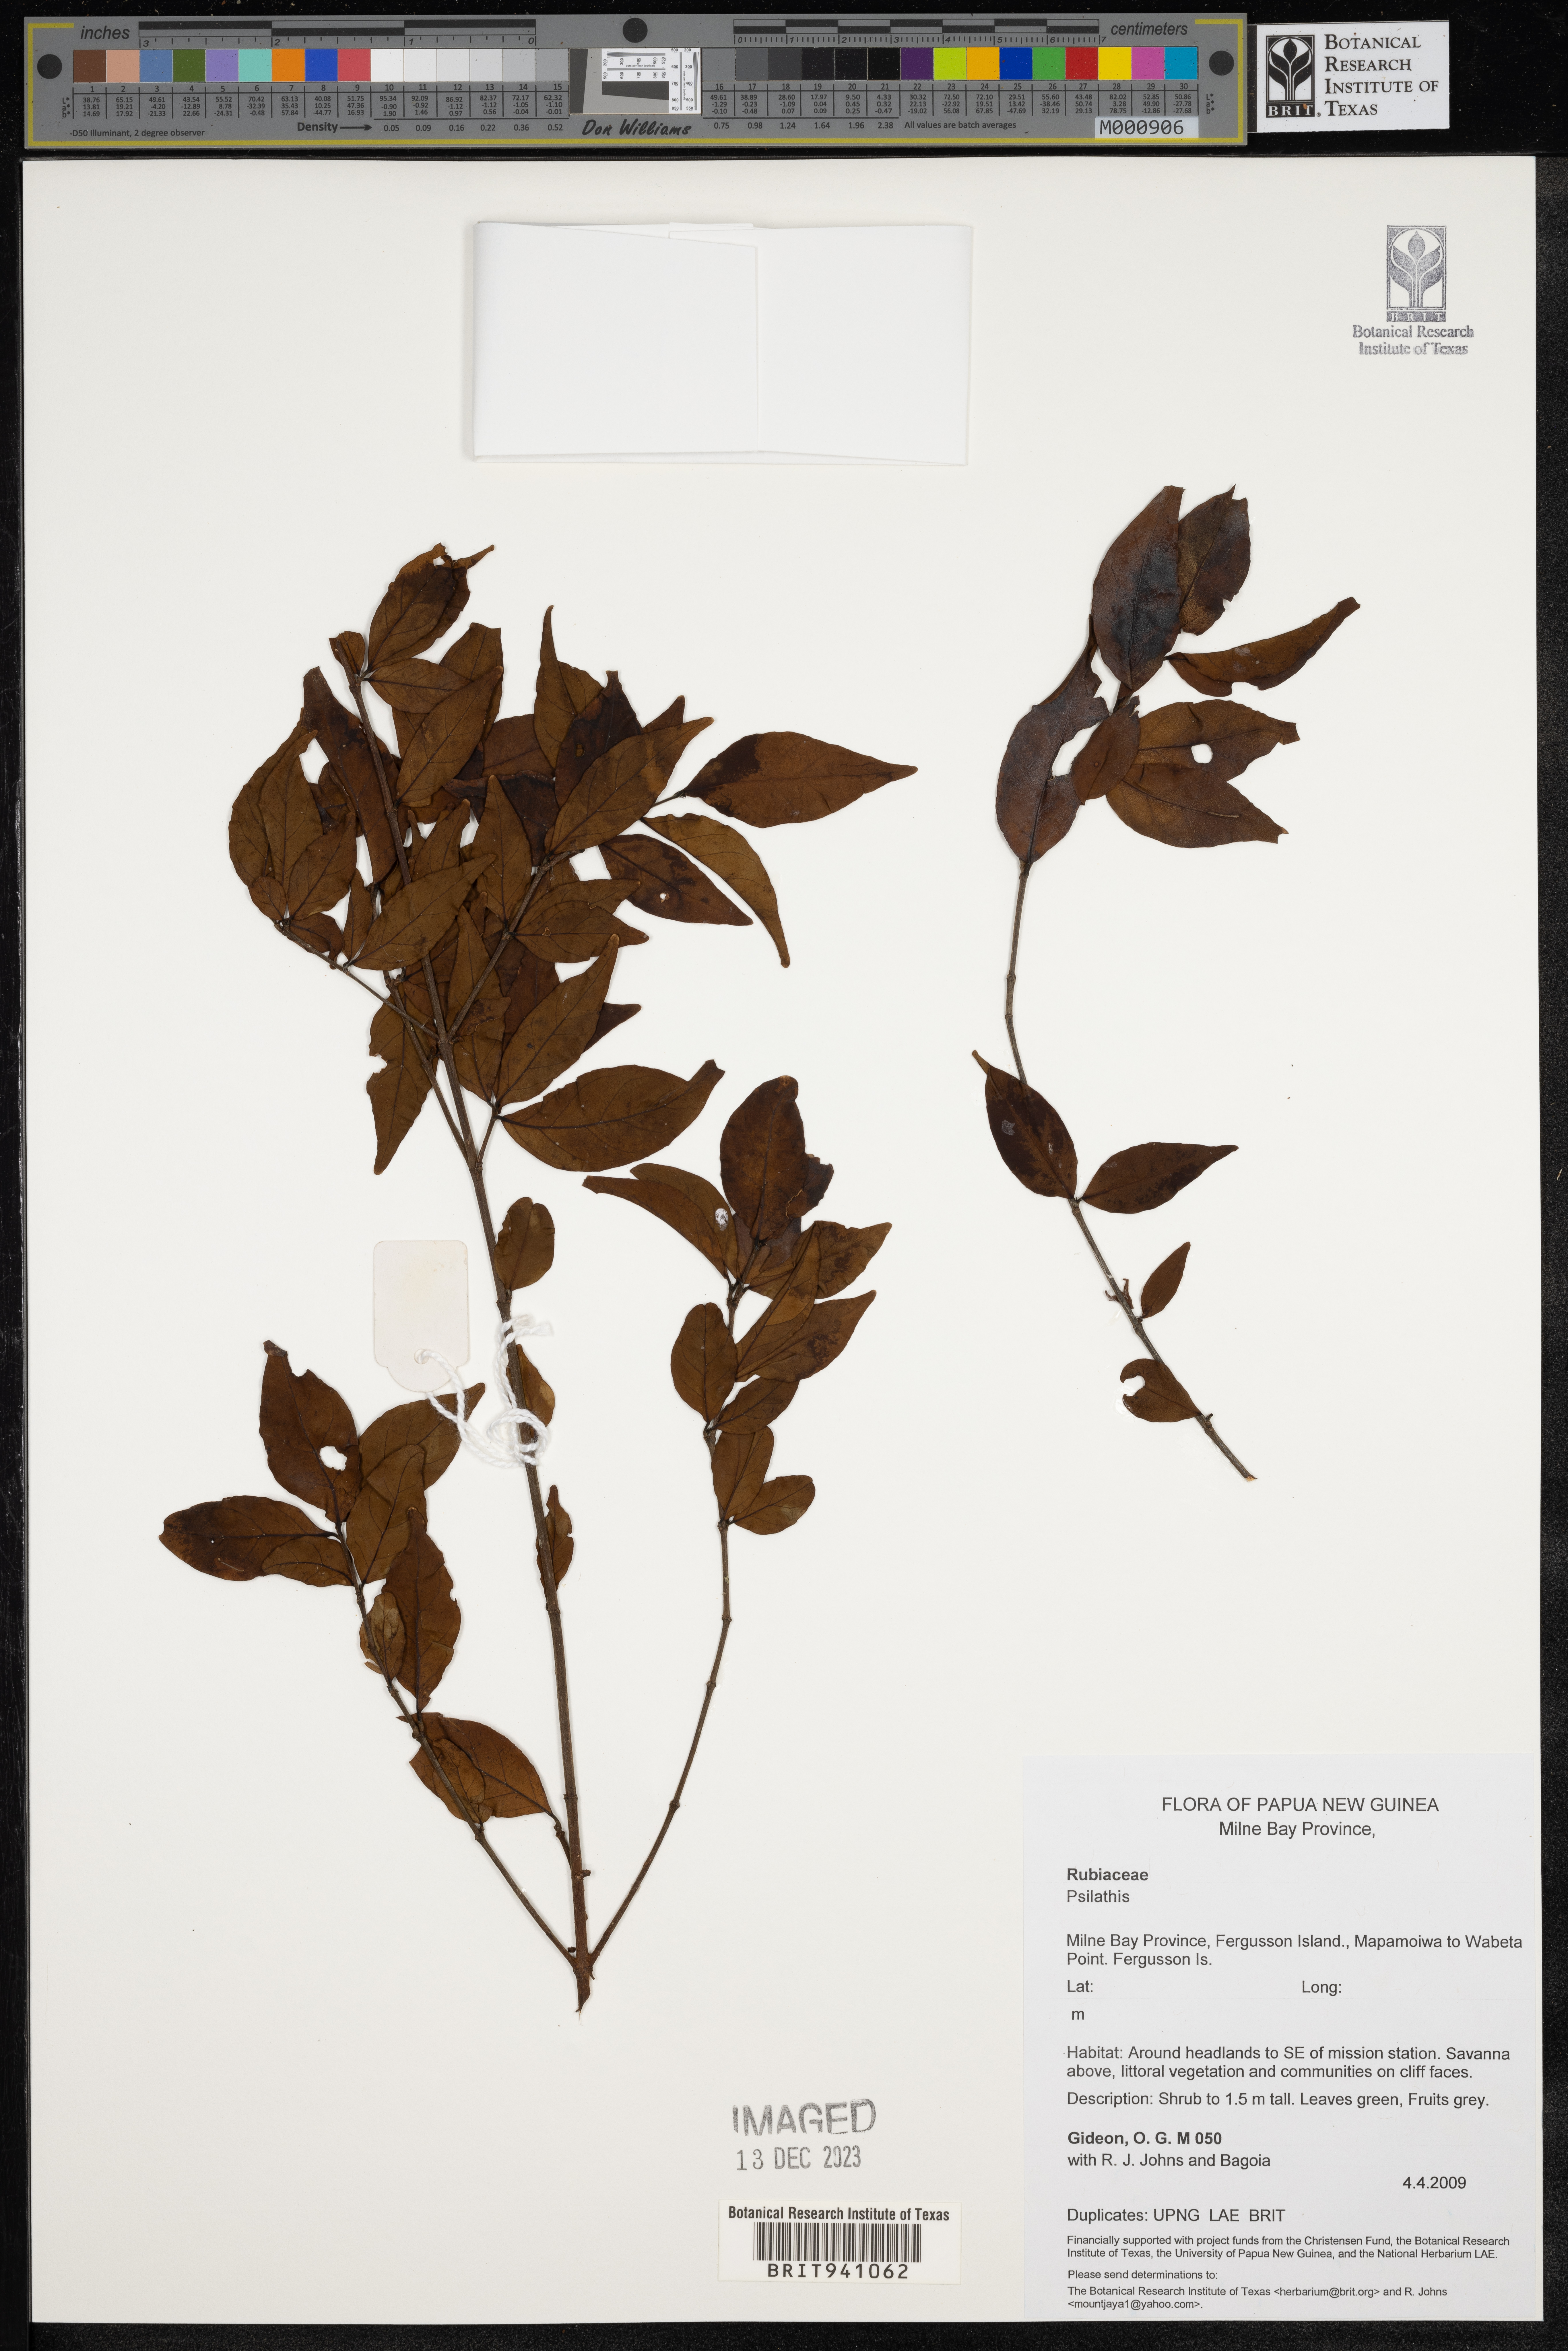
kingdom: Plantae
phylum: Tracheophyta
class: Magnoliopsida
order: Malpighiales
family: Passifloraceae
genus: Psilanthus
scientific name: Psilanthus
